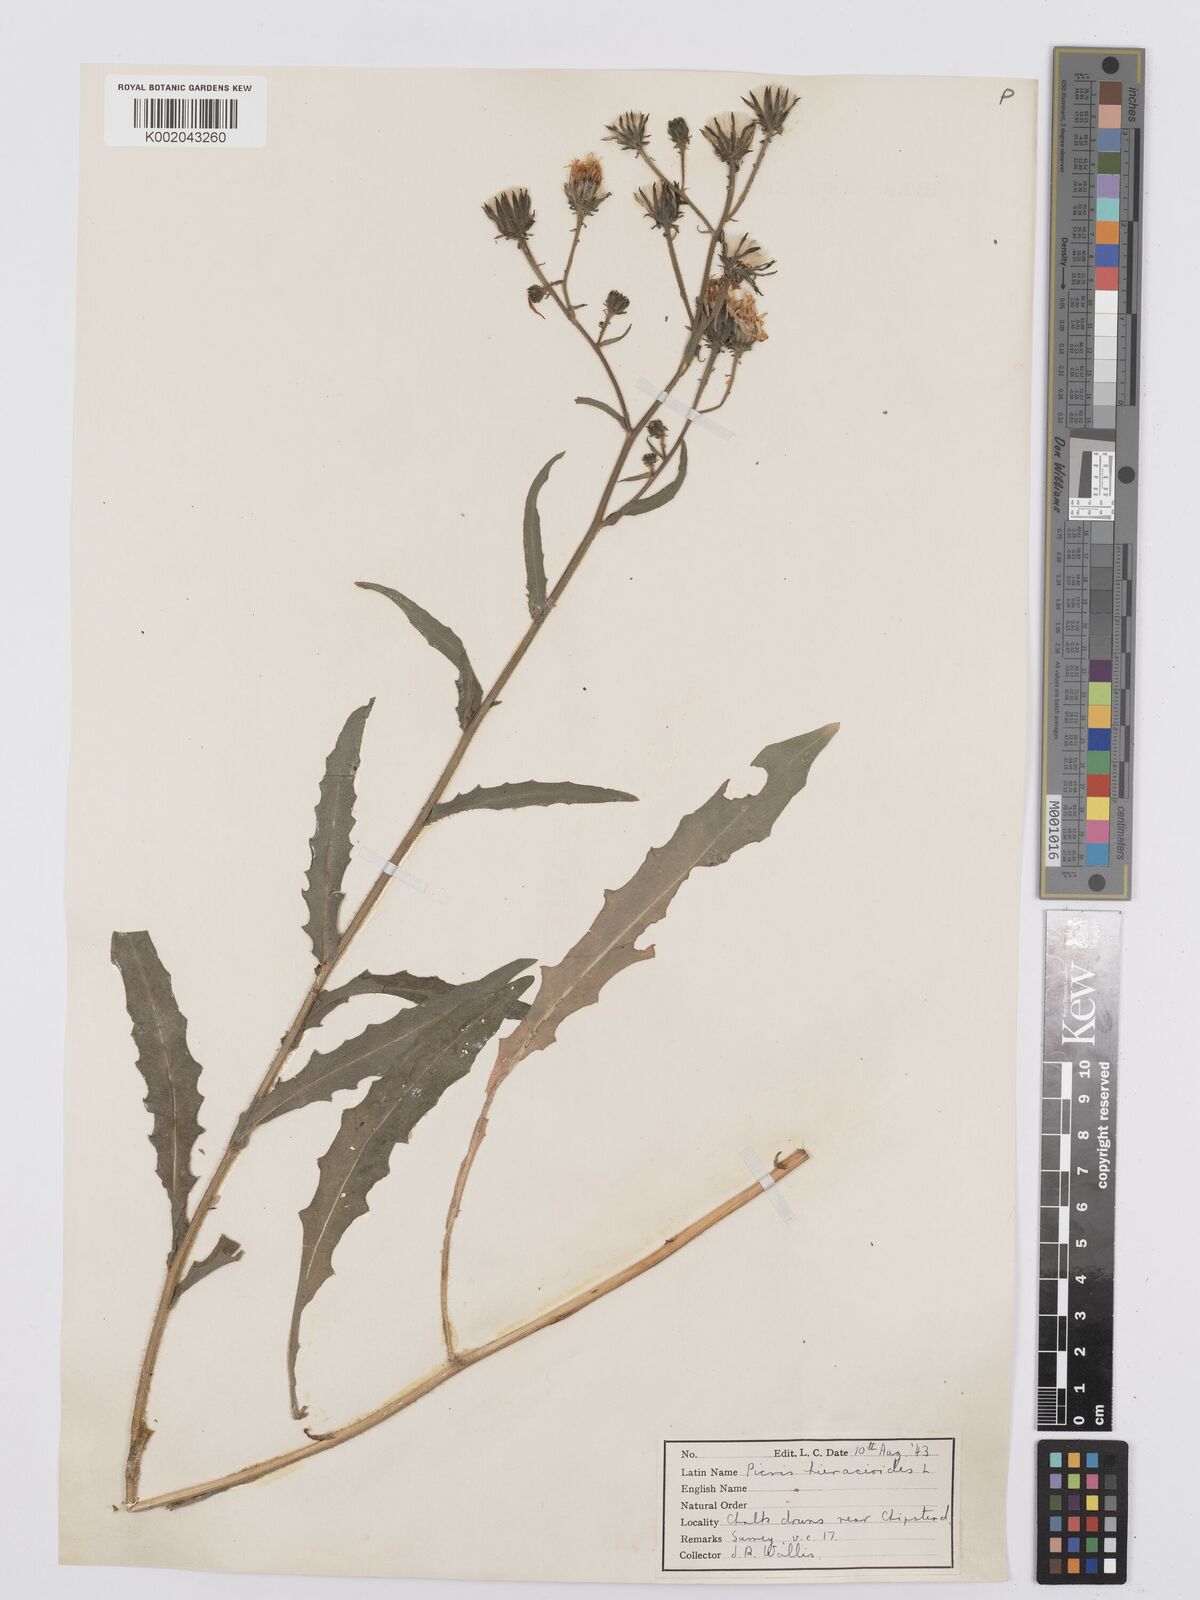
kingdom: Plantae
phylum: Tracheophyta
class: Magnoliopsida
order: Asterales
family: Asteraceae
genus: Picris
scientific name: Picris hieracioides
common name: Hawkweed oxtongue
